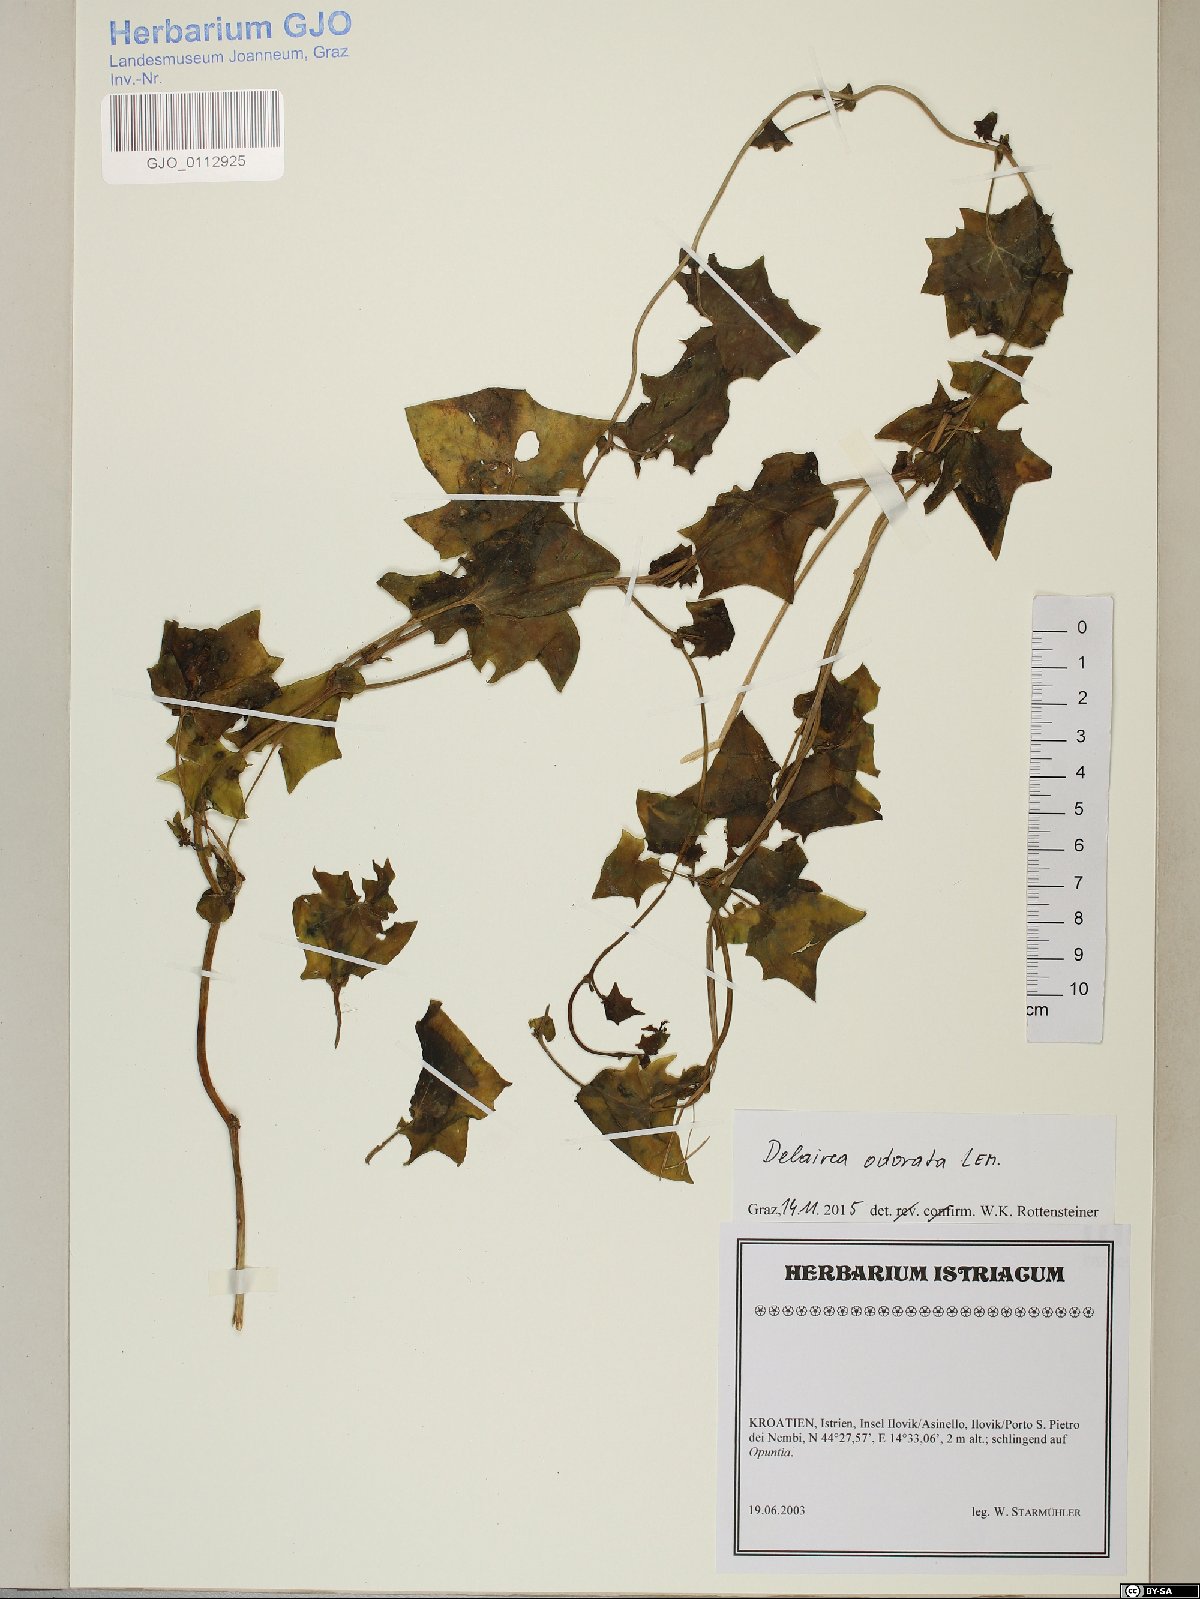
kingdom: Plantae
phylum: Tracheophyta
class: Magnoliopsida
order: Asterales
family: Asteraceae
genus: Delairea
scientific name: Delairea odorata
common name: Cape-ivy
